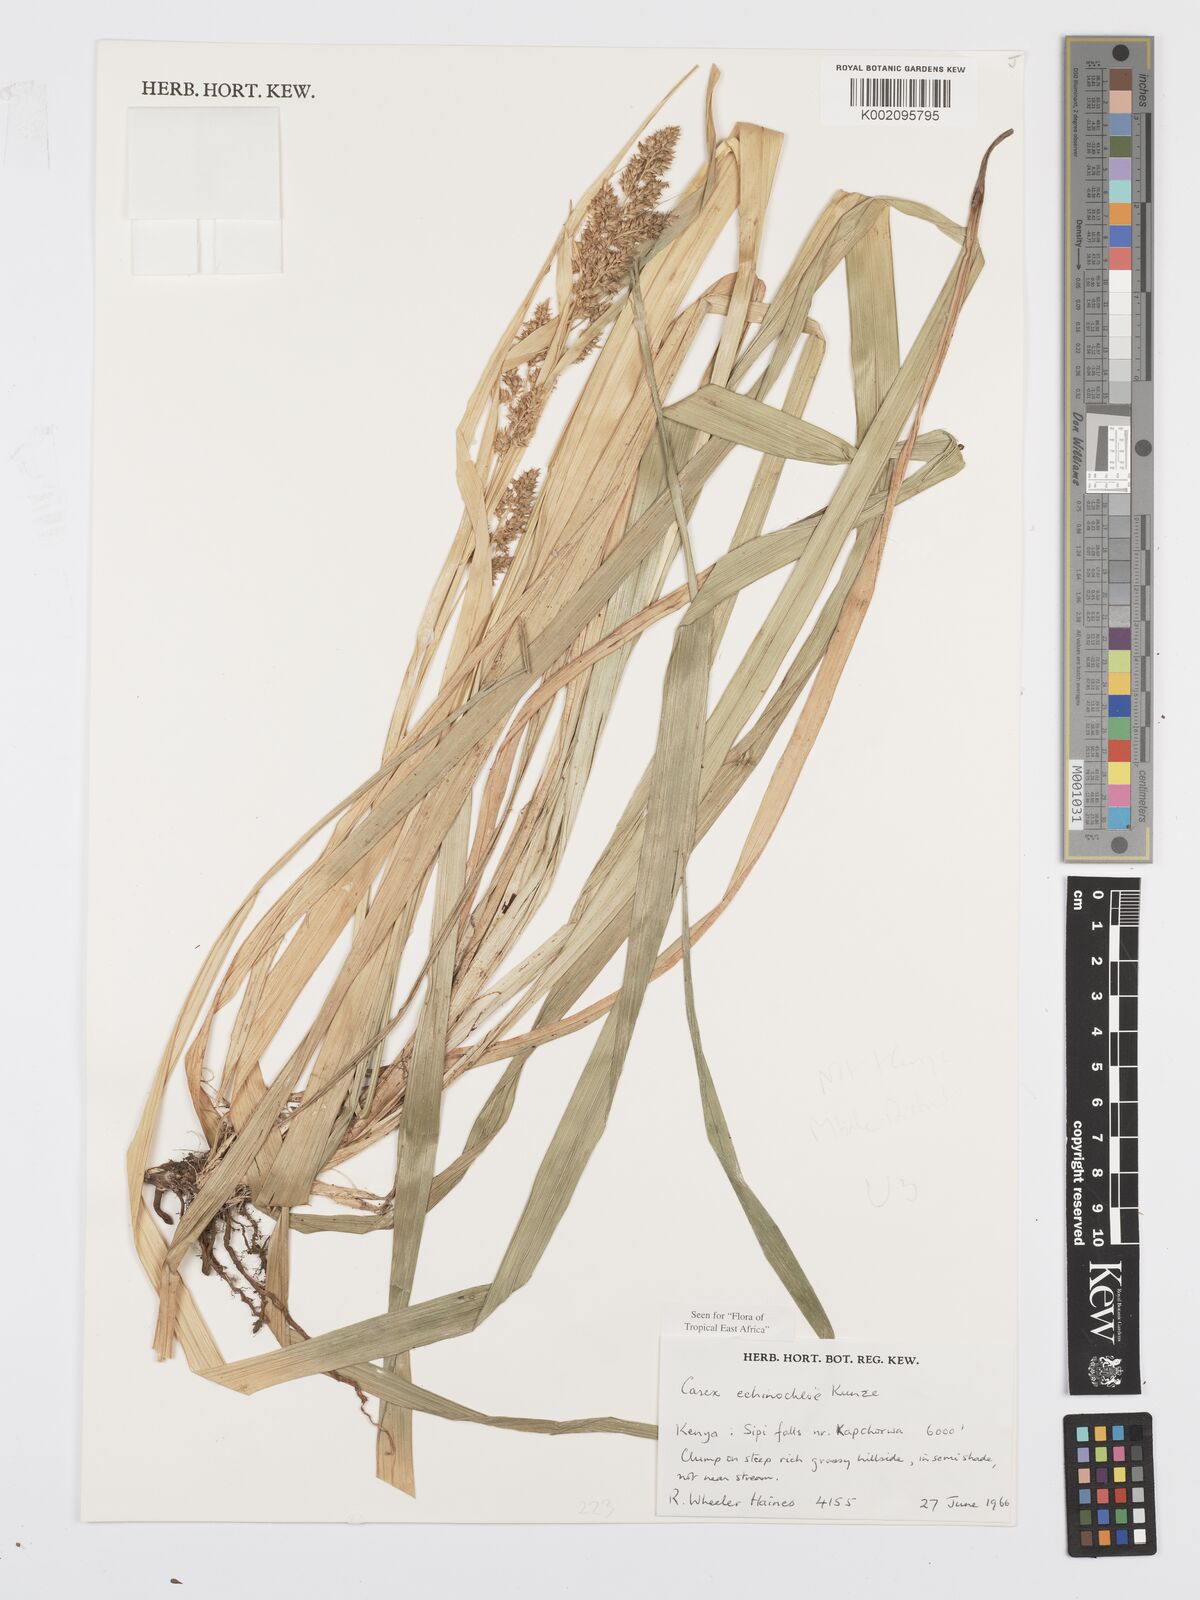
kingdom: Plantae
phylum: Tracheophyta
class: Liliopsida
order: Poales
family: Cyperaceae
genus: Carex
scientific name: Carex echinochloe
